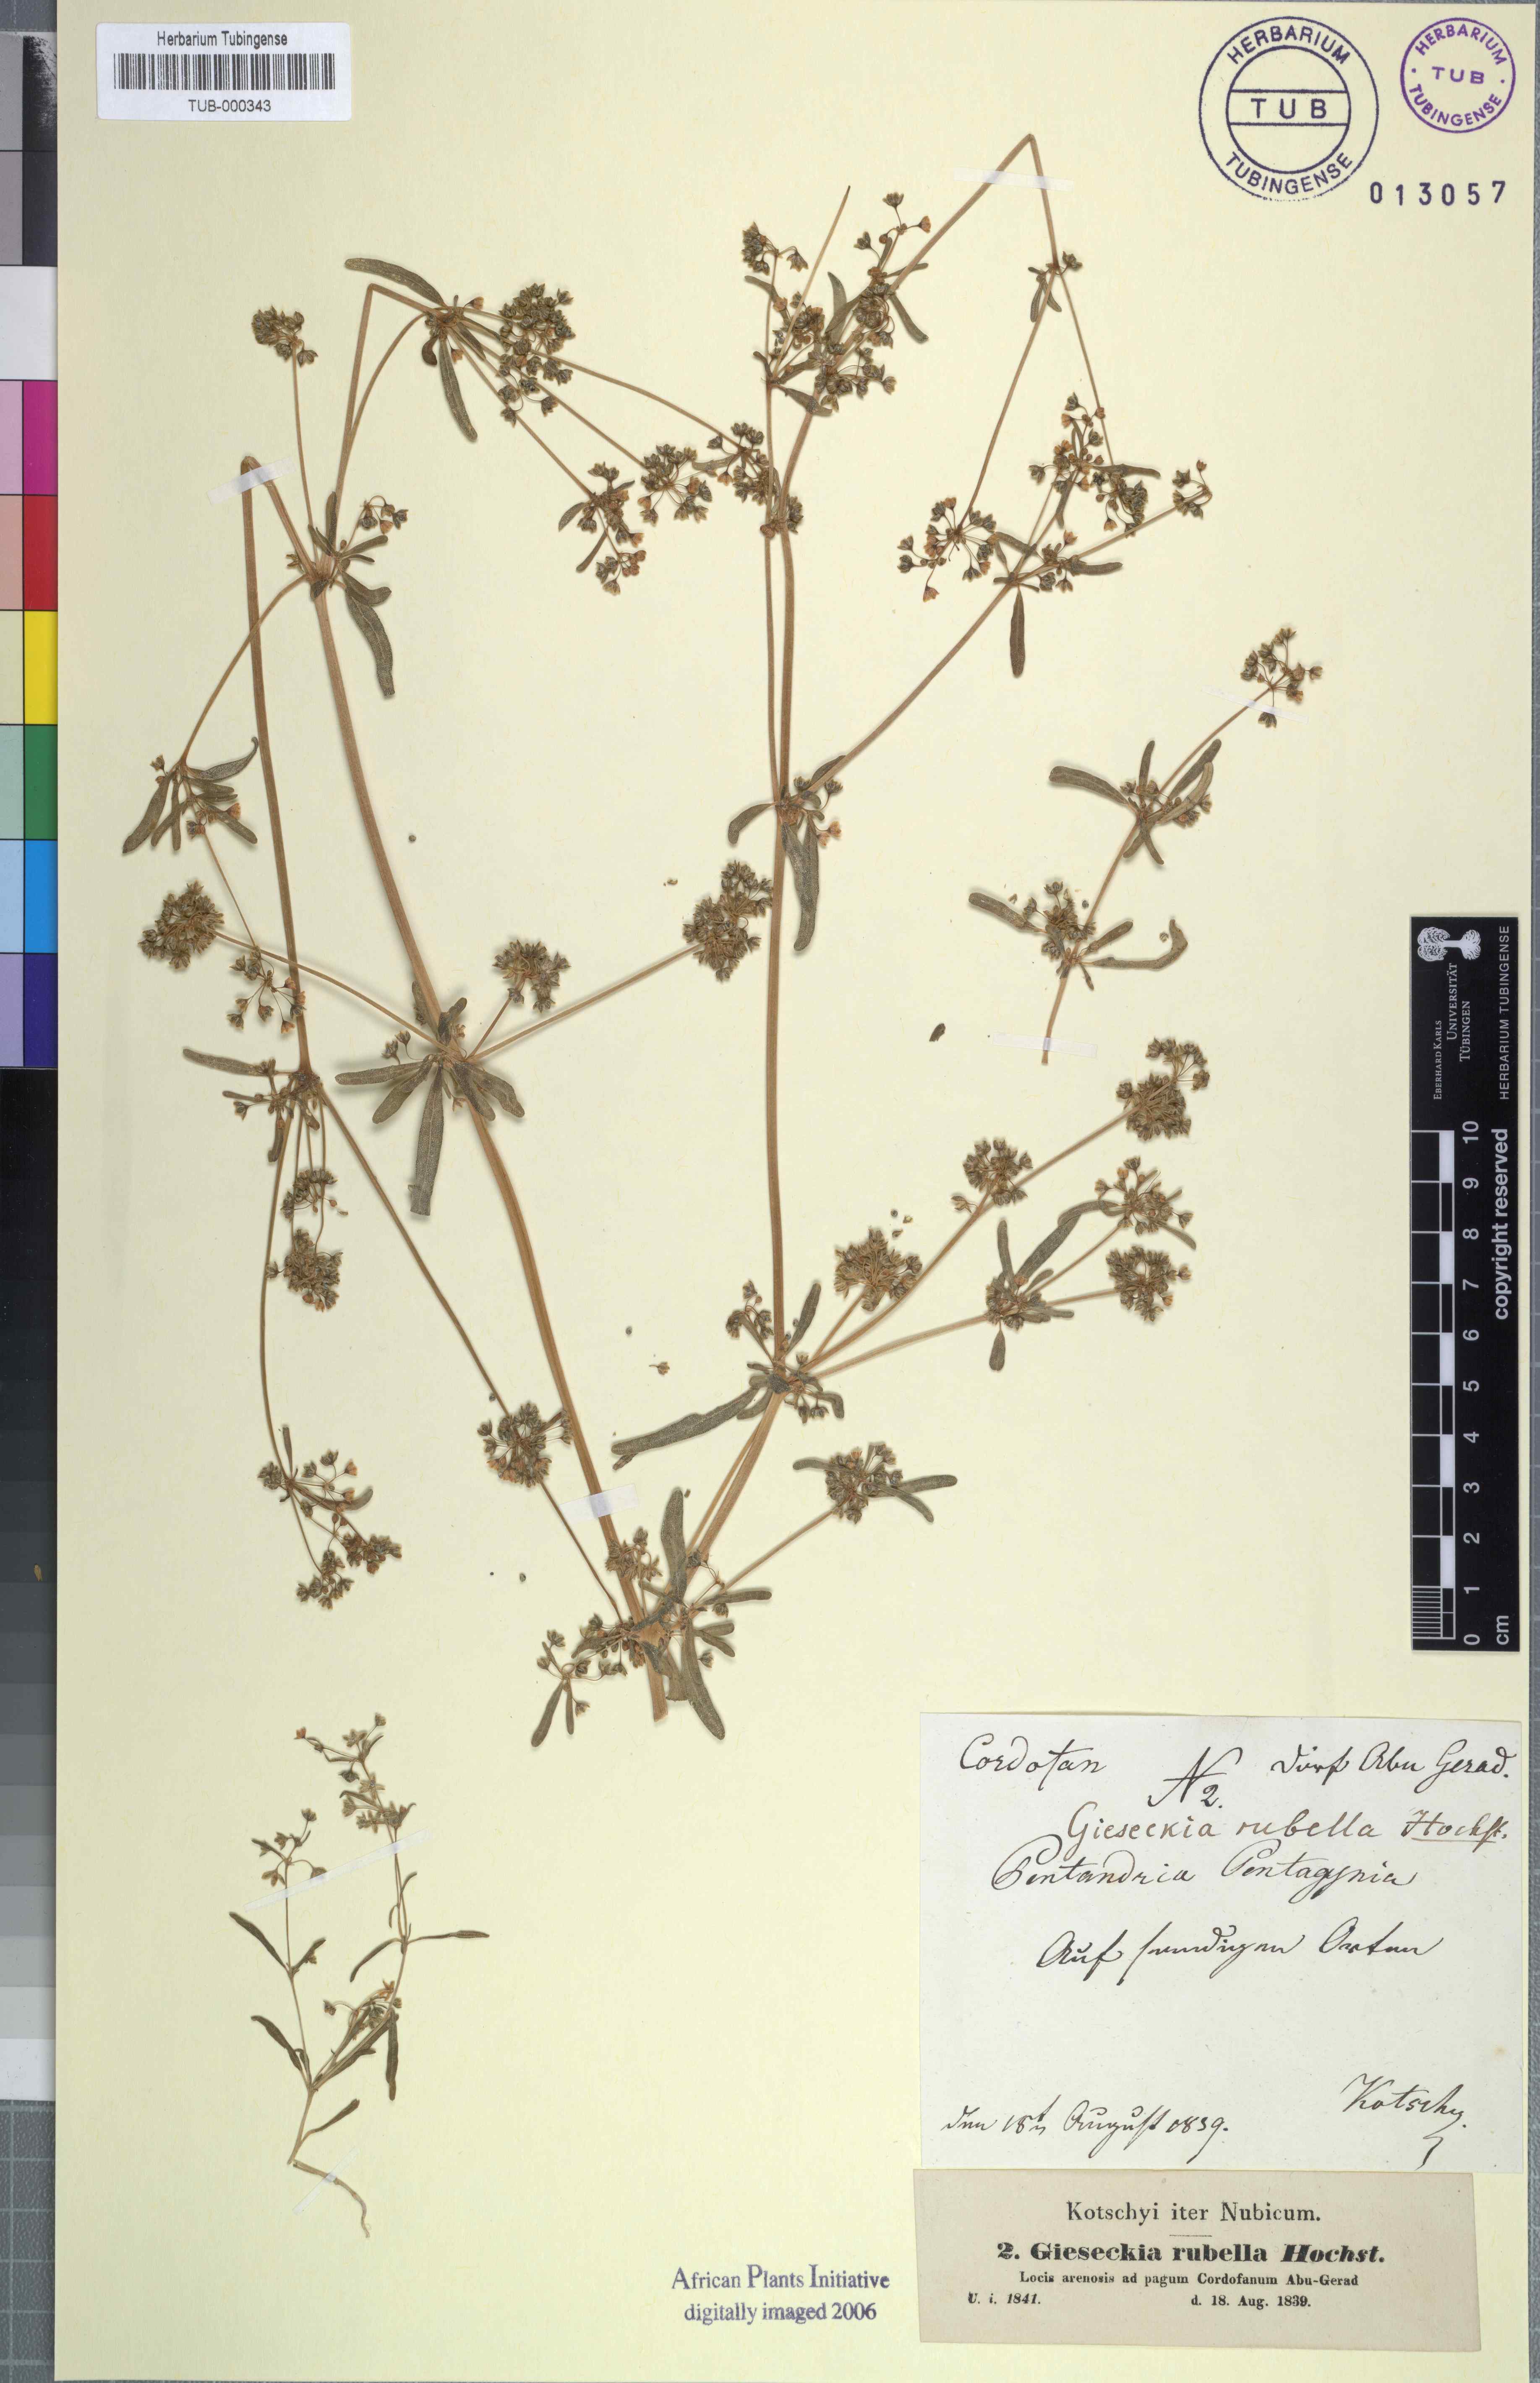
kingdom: Plantae
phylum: Tracheophyta
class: Magnoliopsida
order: Caryophyllales
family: Gisekiaceae
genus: Gisekia
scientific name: Gisekia pharnaceoides
